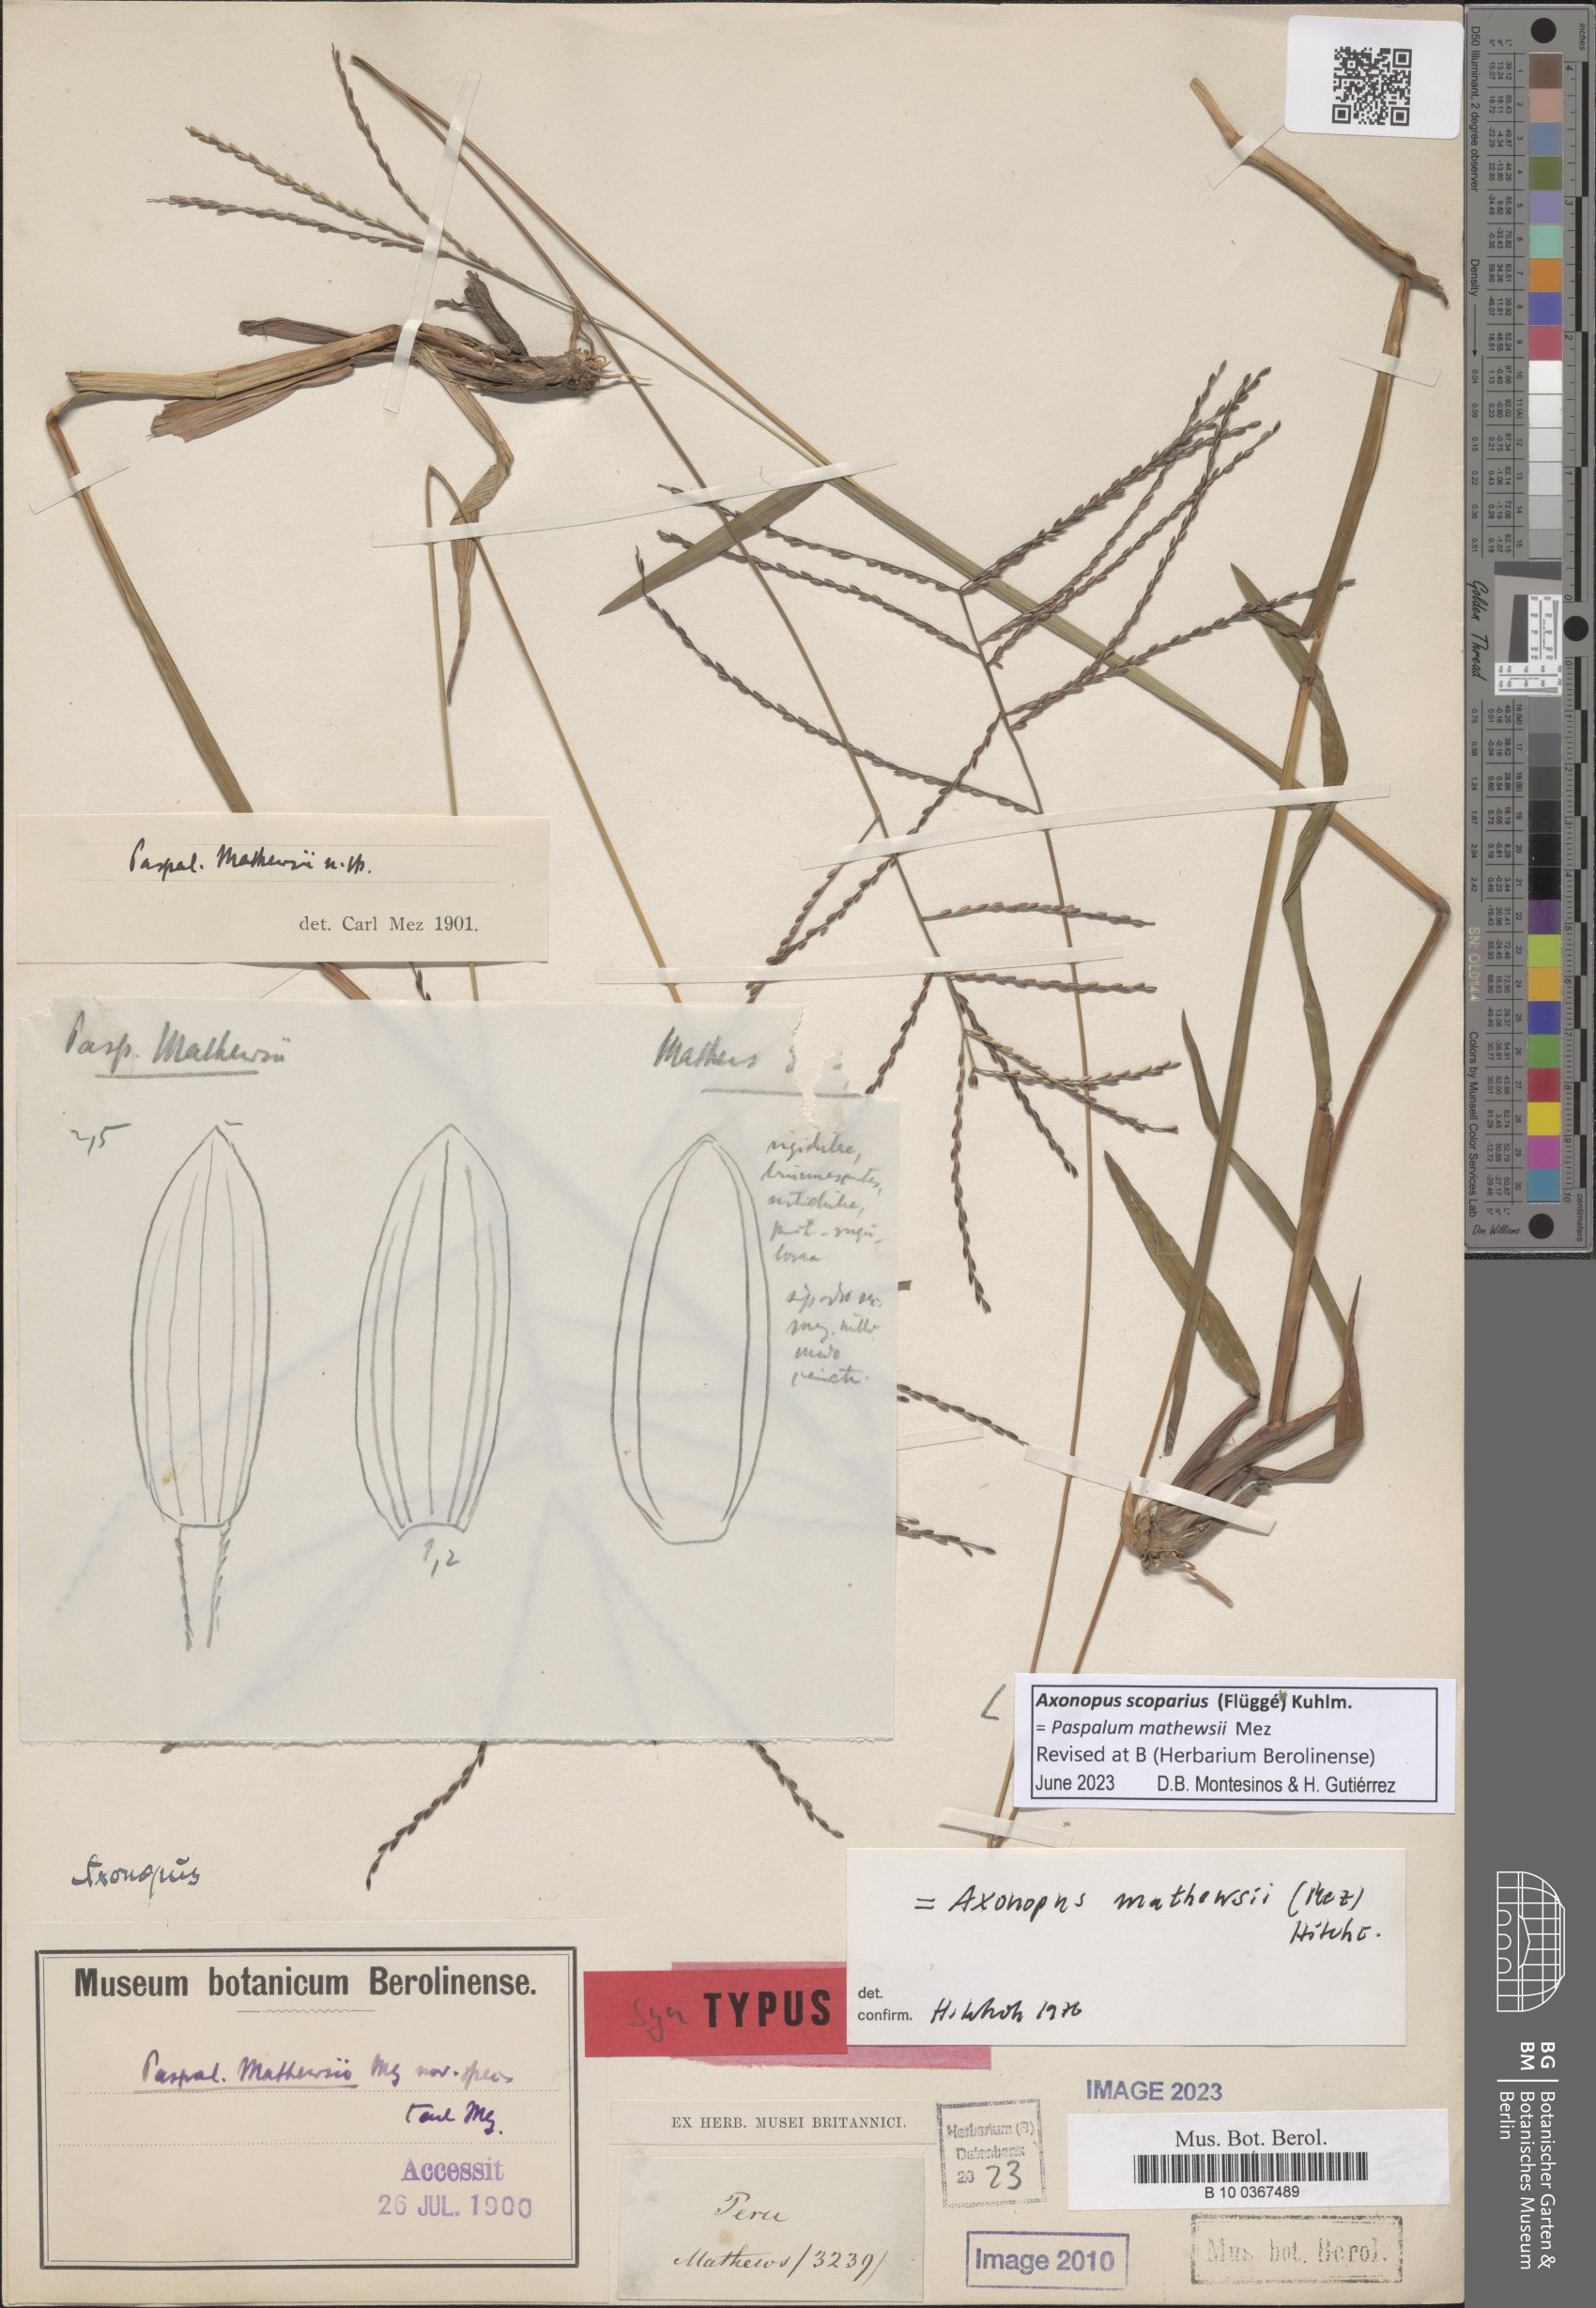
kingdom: Plantae
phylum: Tracheophyta
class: Liliopsida
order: Poales
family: Poaceae
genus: Axonopus
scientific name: Axonopus scoparius
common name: Imperial grass
